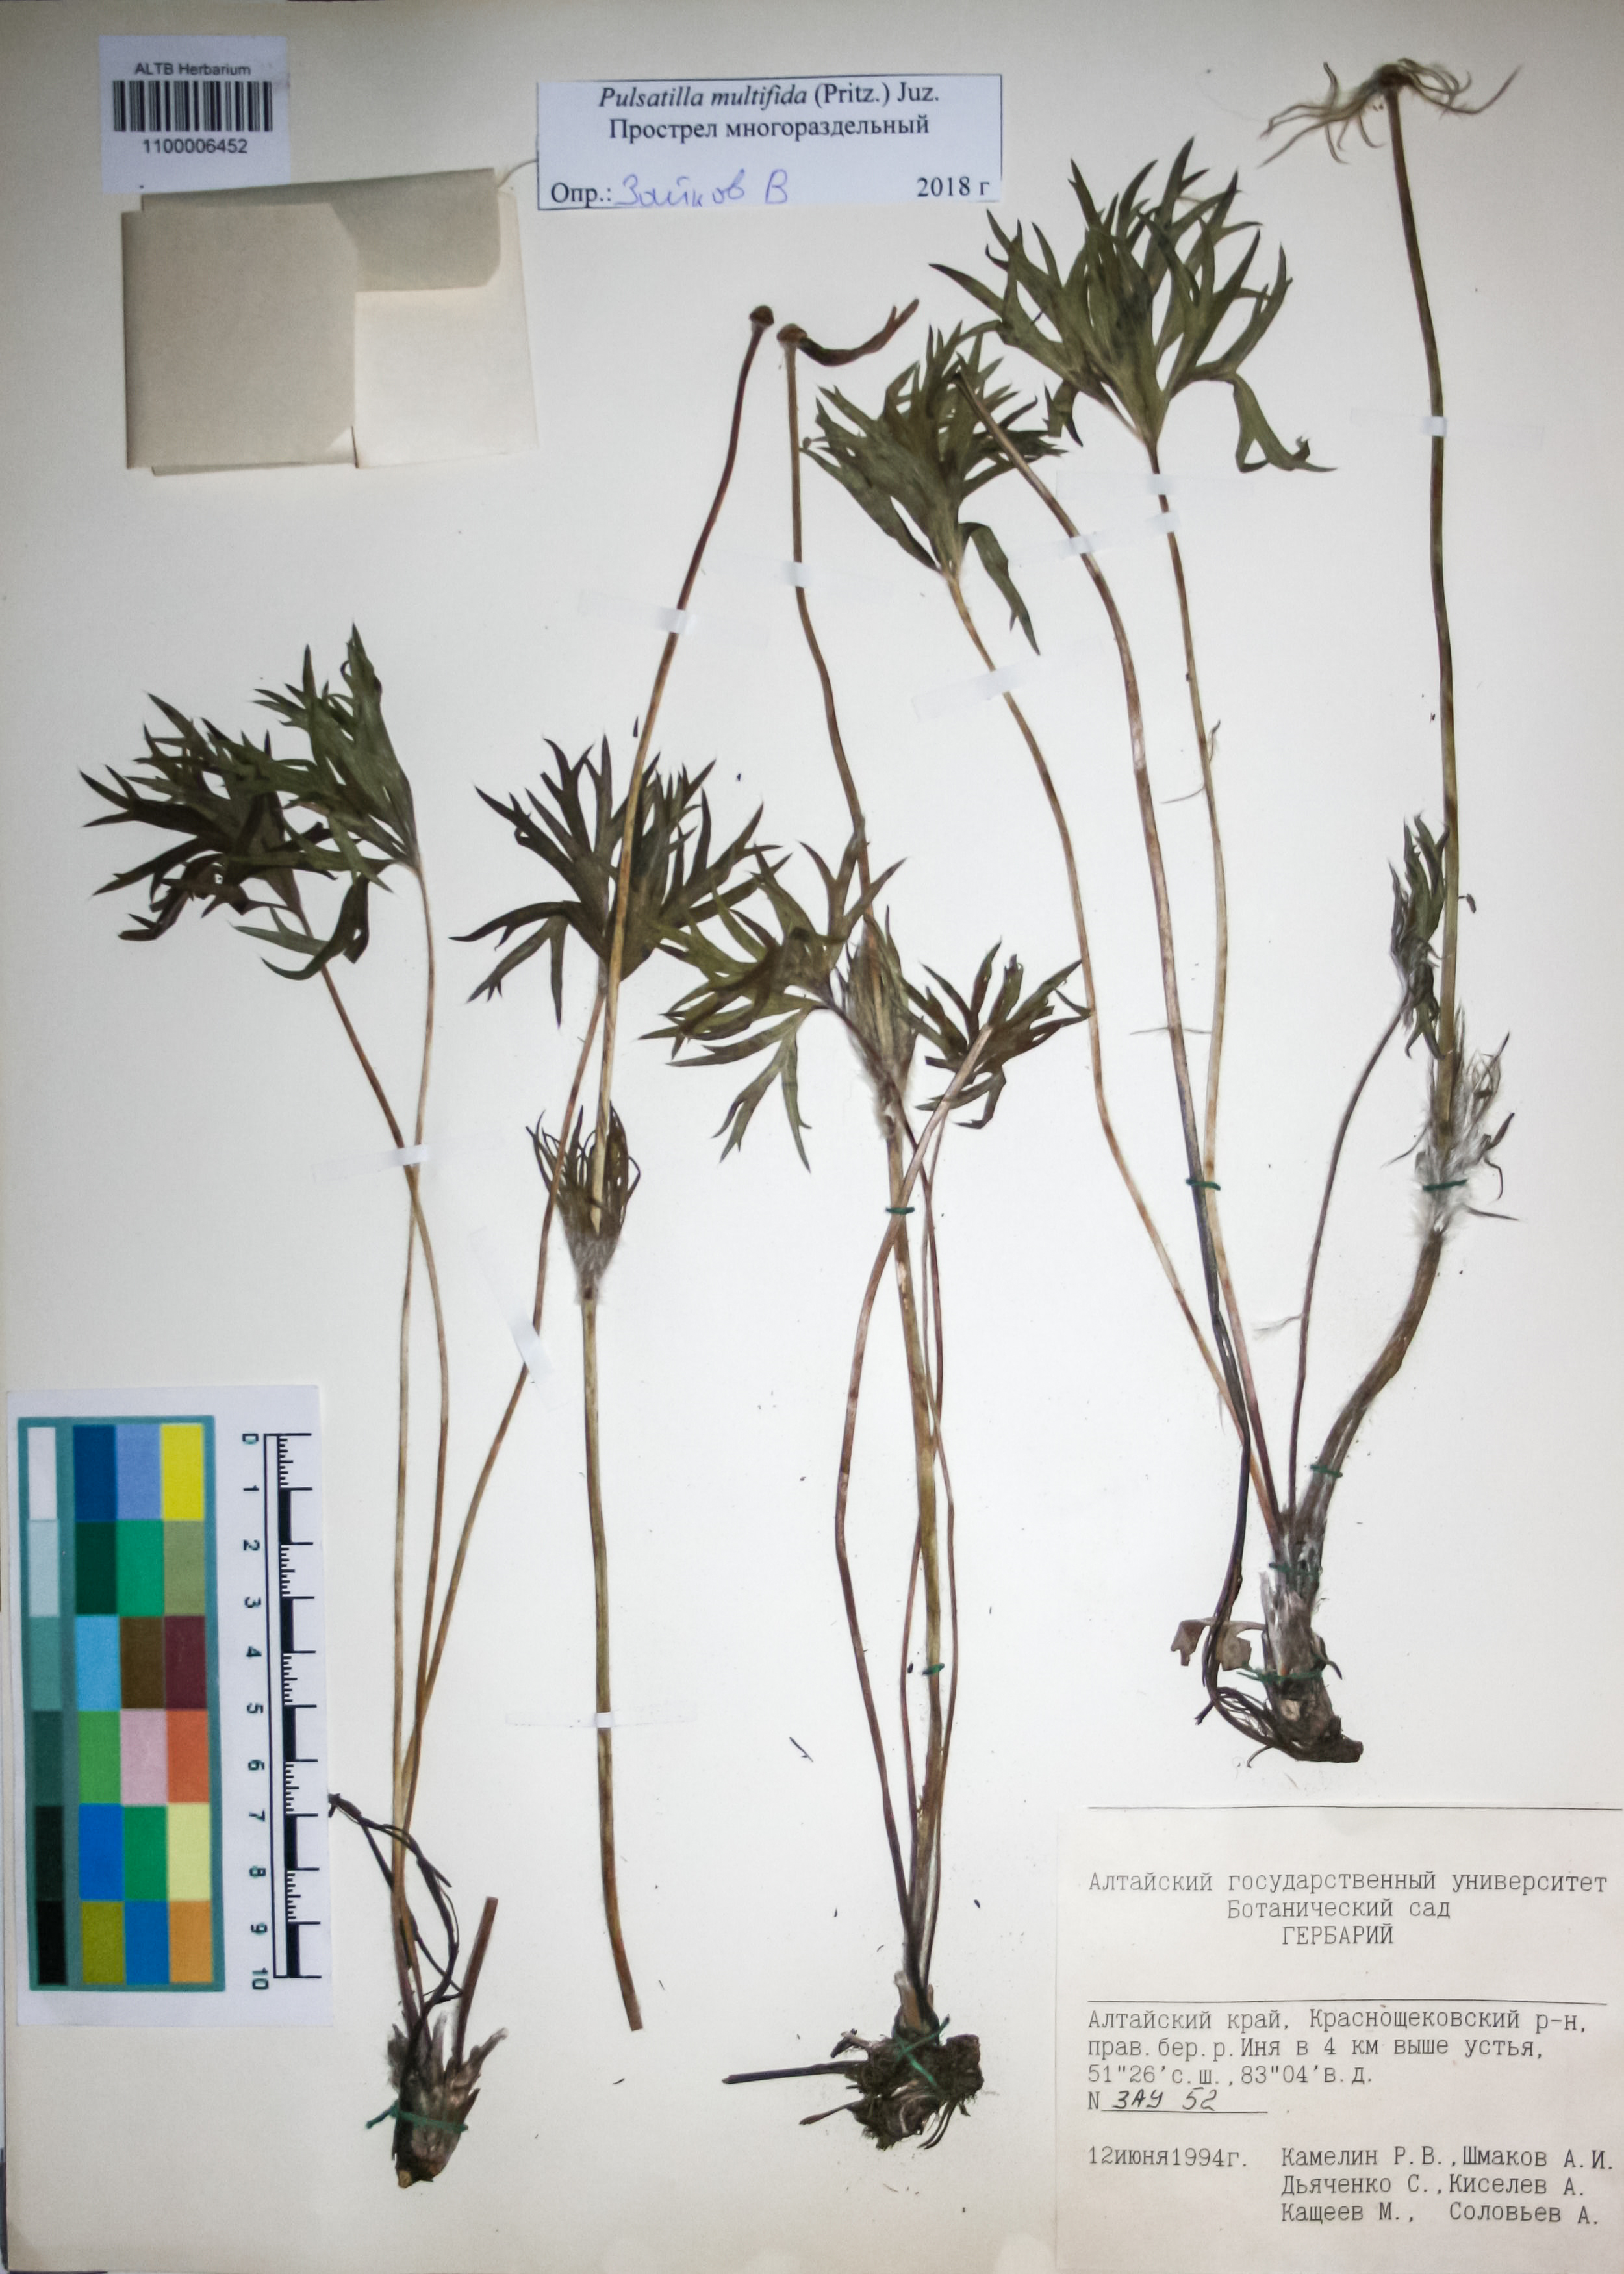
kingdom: Plantae
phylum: Tracheophyta
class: Magnoliopsida
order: Ranunculales
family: Ranunculaceae
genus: Pulsatilla
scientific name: Pulsatilla patens
